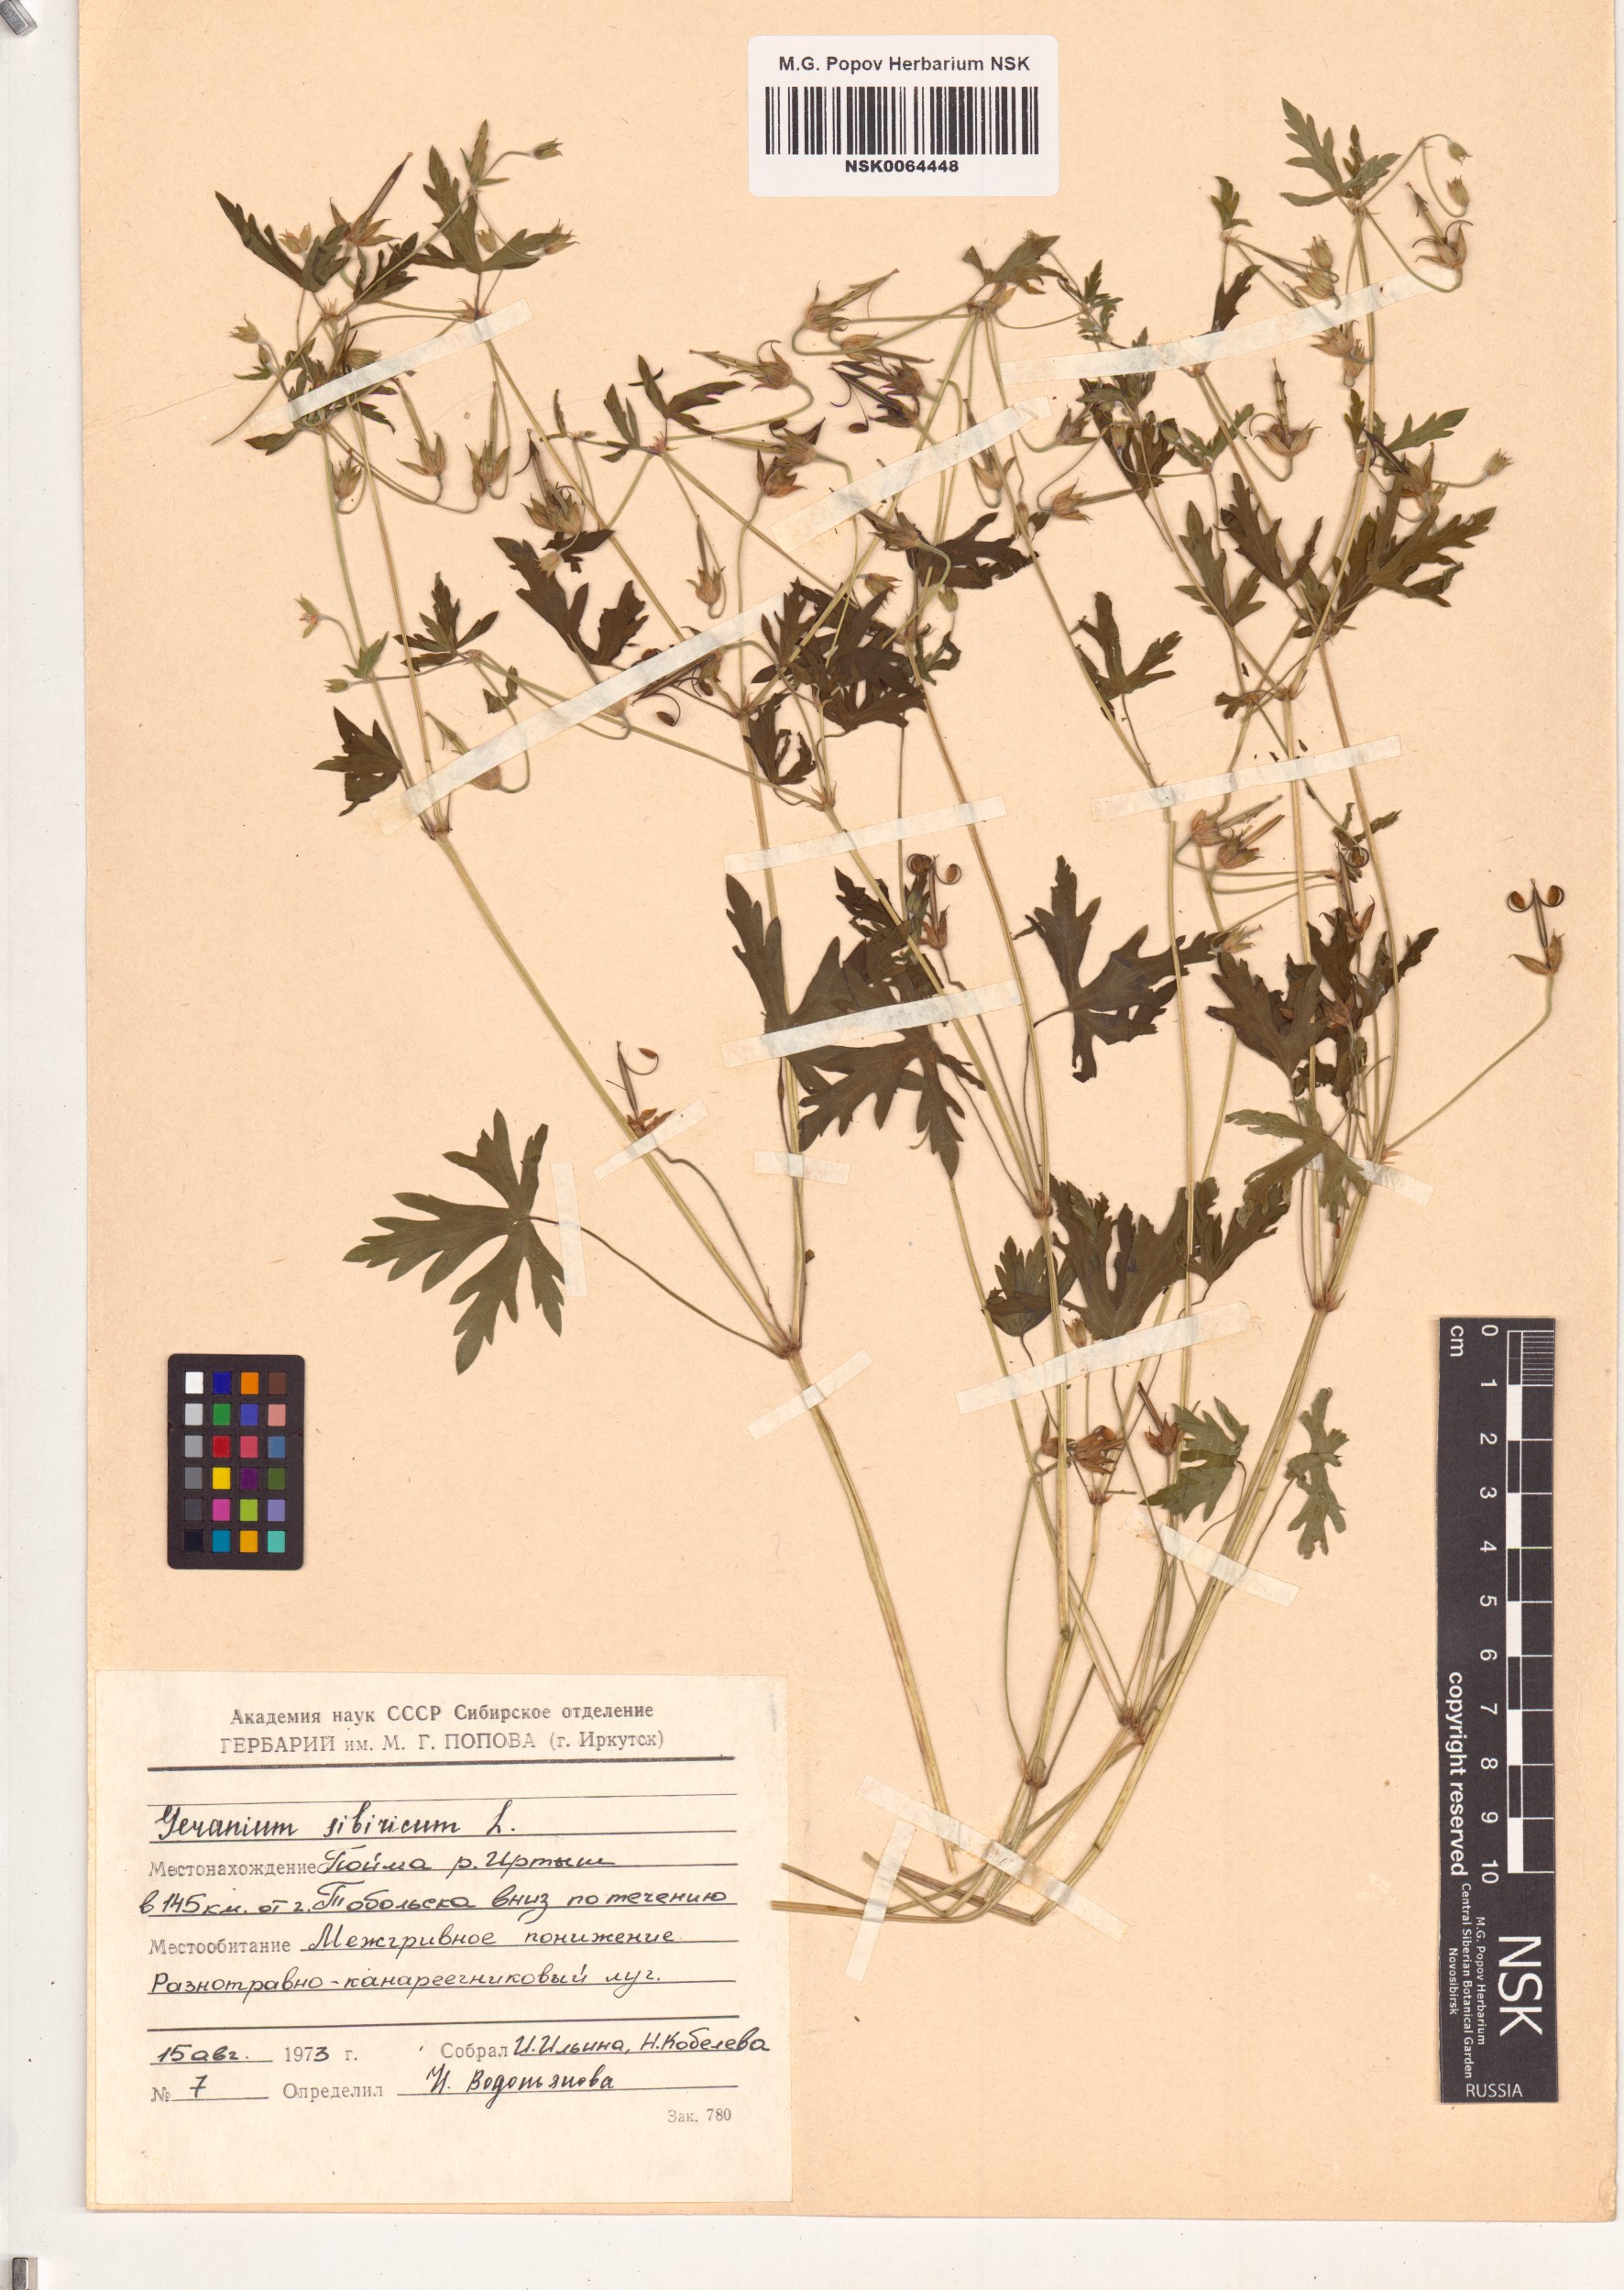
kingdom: Plantae
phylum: Tracheophyta
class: Magnoliopsida
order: Geraniales
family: Geraniaceae
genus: Geranium
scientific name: Geranium sibiricum
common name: Siberian crane's-bill
